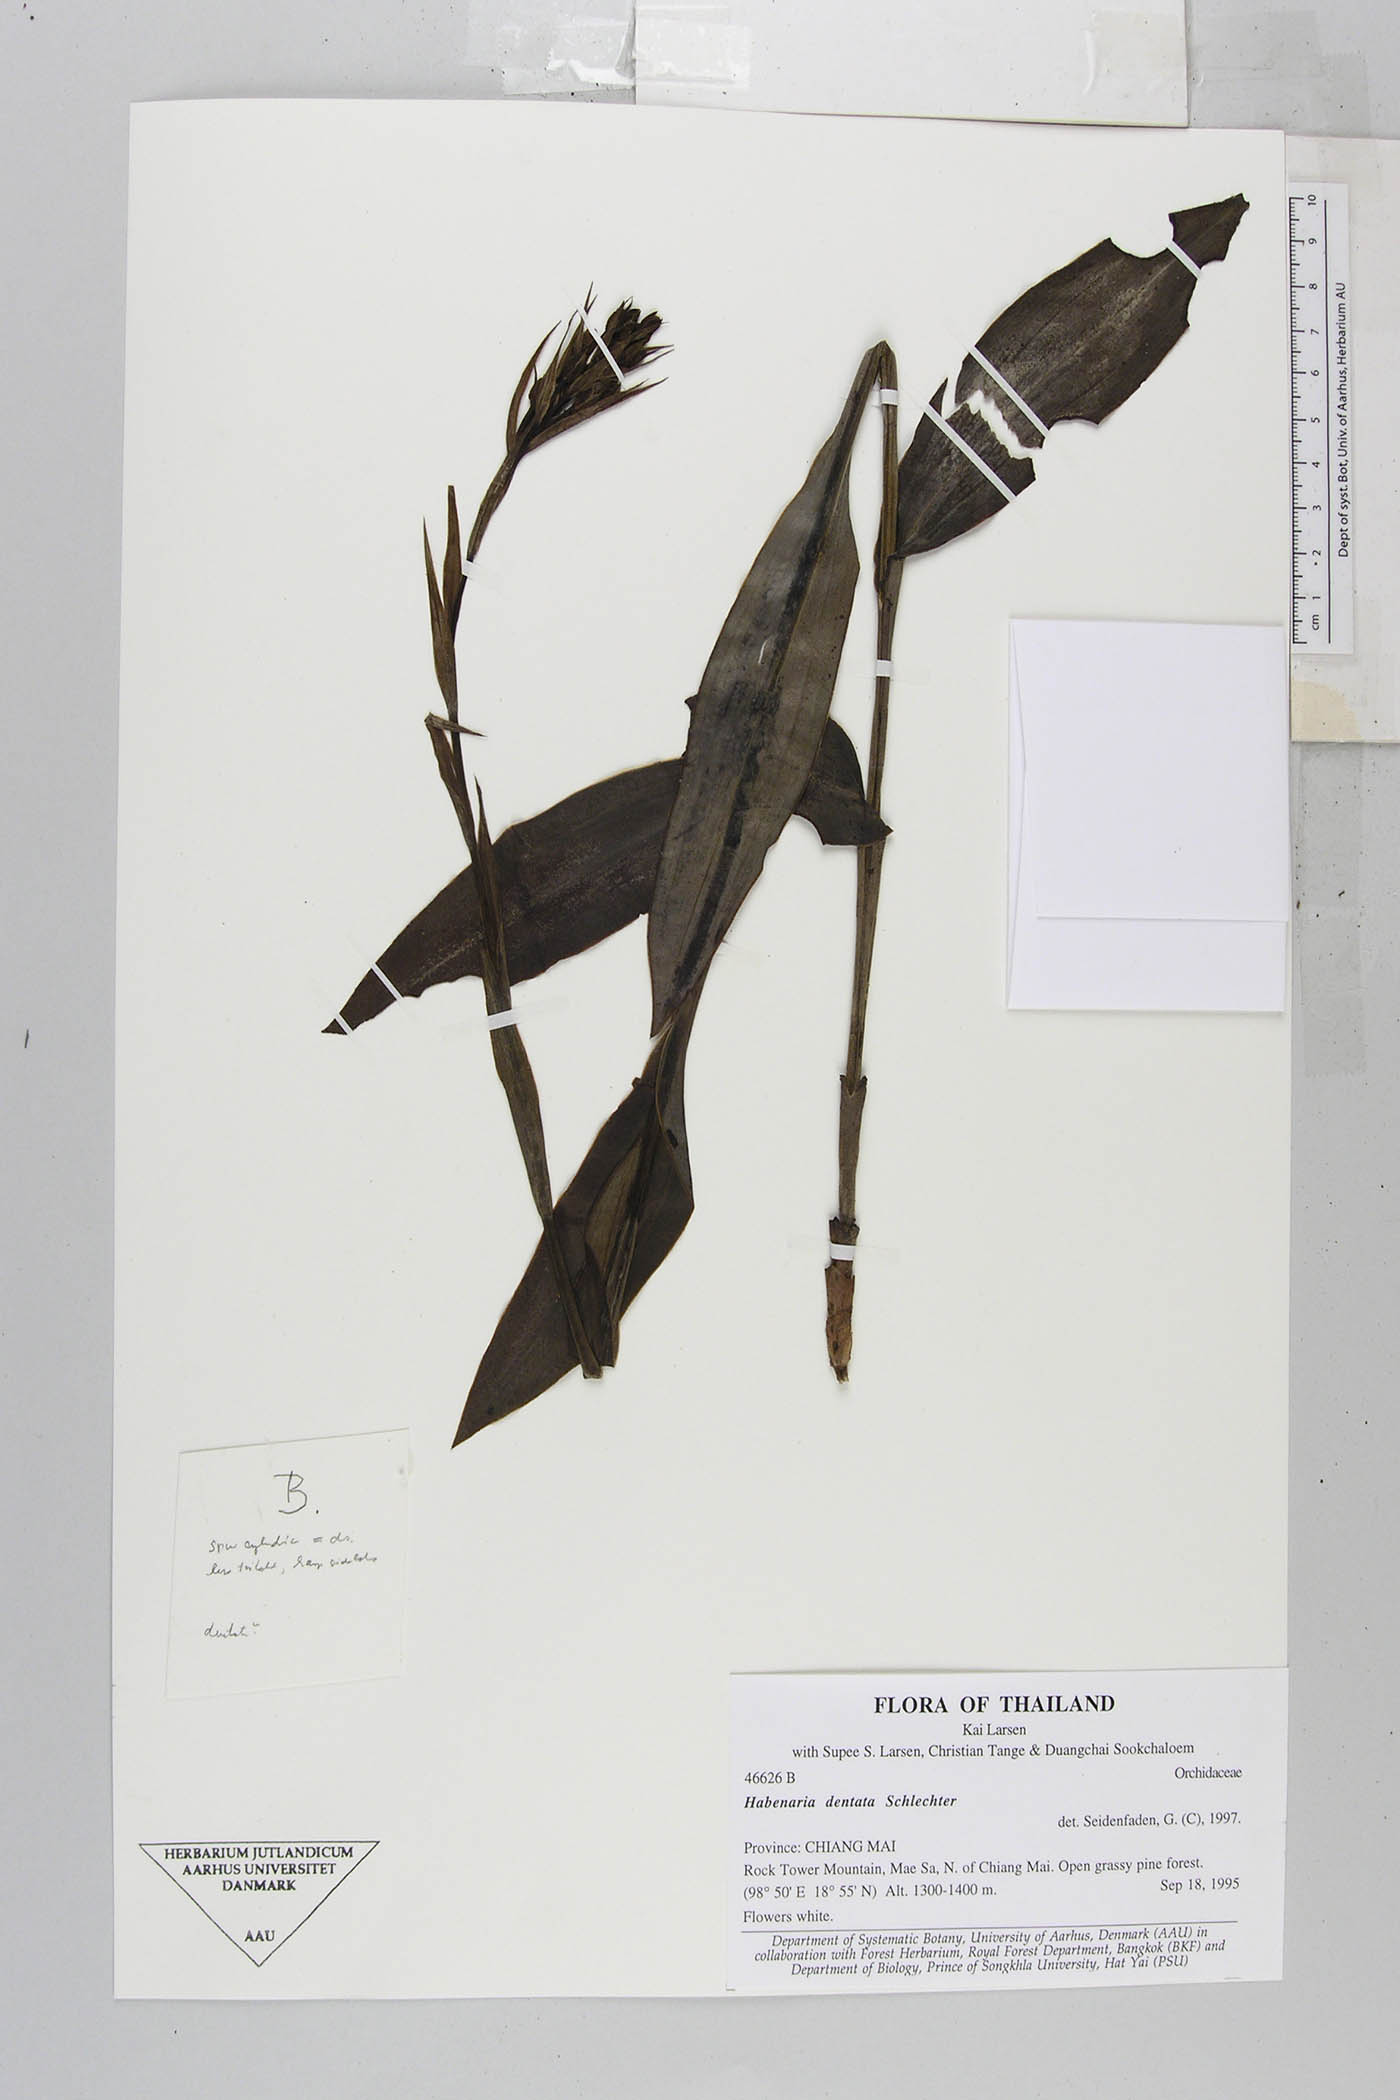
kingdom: Plantae
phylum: Tracheophyta
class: Liliopsida
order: Asparagales
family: Orchidaceae
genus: Habenaria
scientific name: Habenaria dentata
